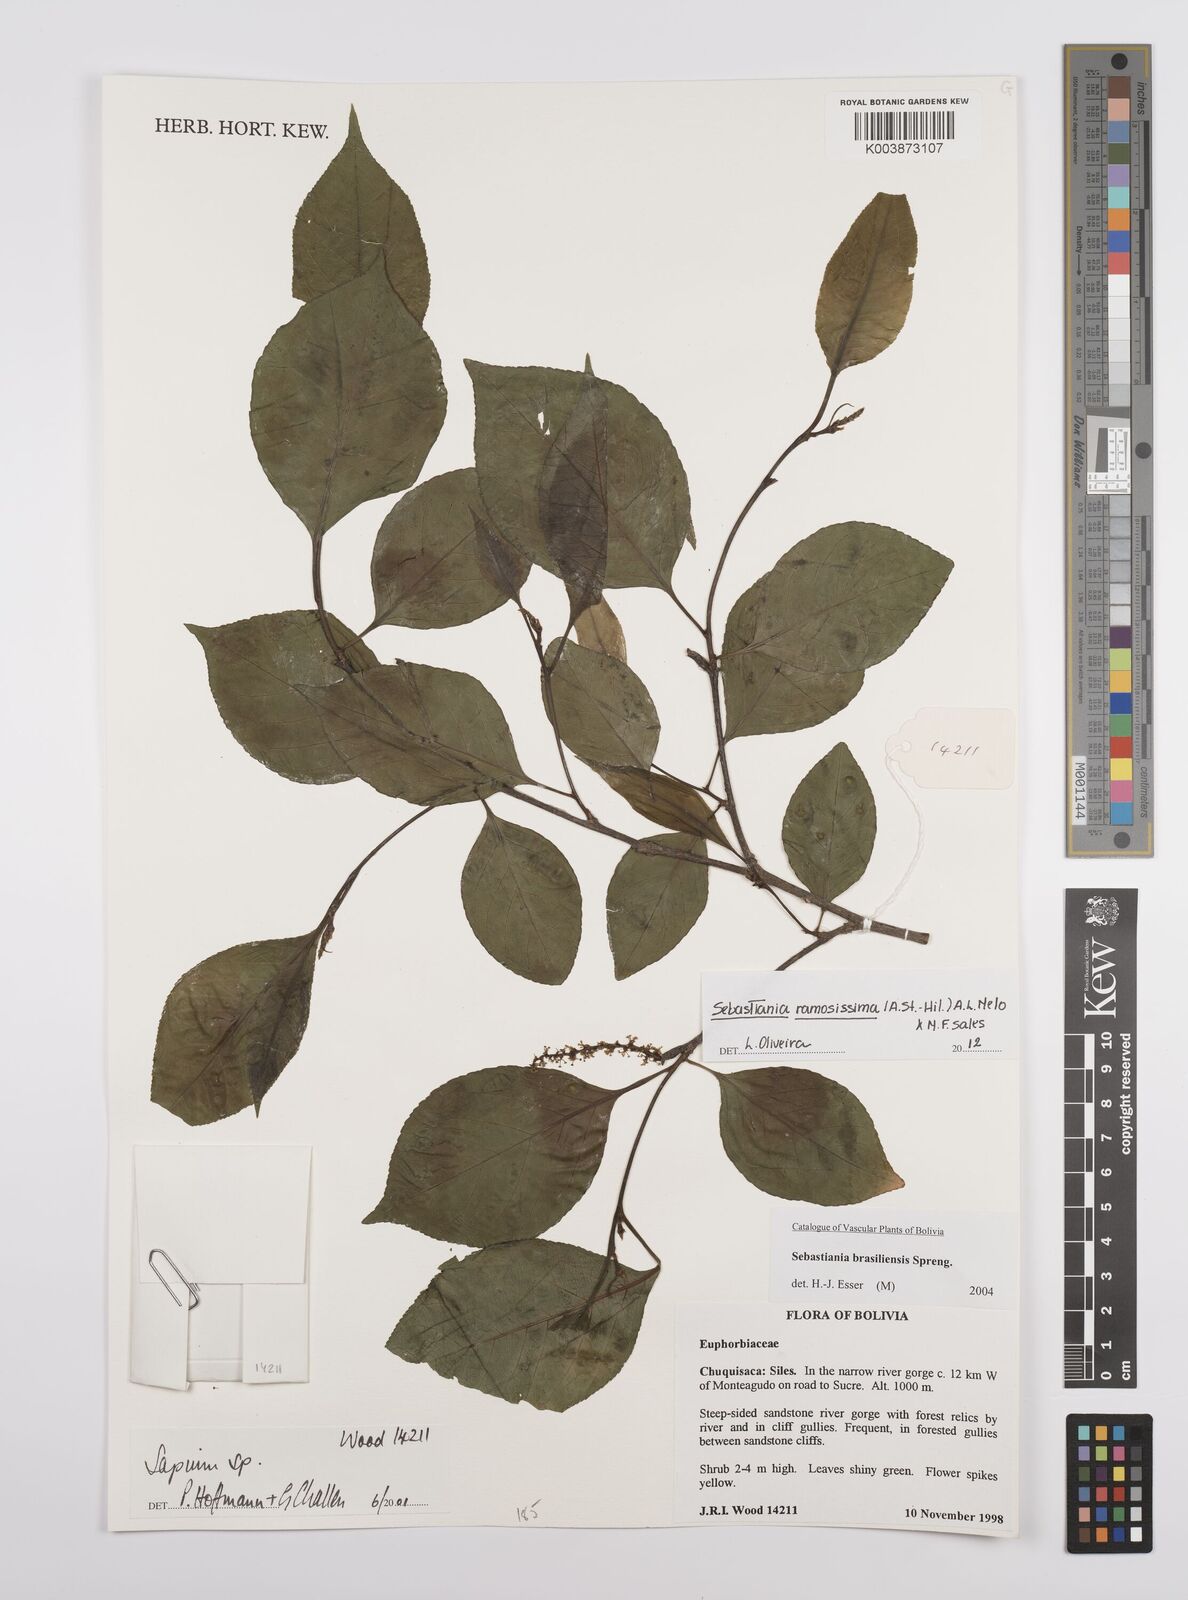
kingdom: Plantae
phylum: Tracheophyta
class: Magnoliopsida
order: Malpighiales
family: Euphorbiaceae
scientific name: Euphorbiaceae
